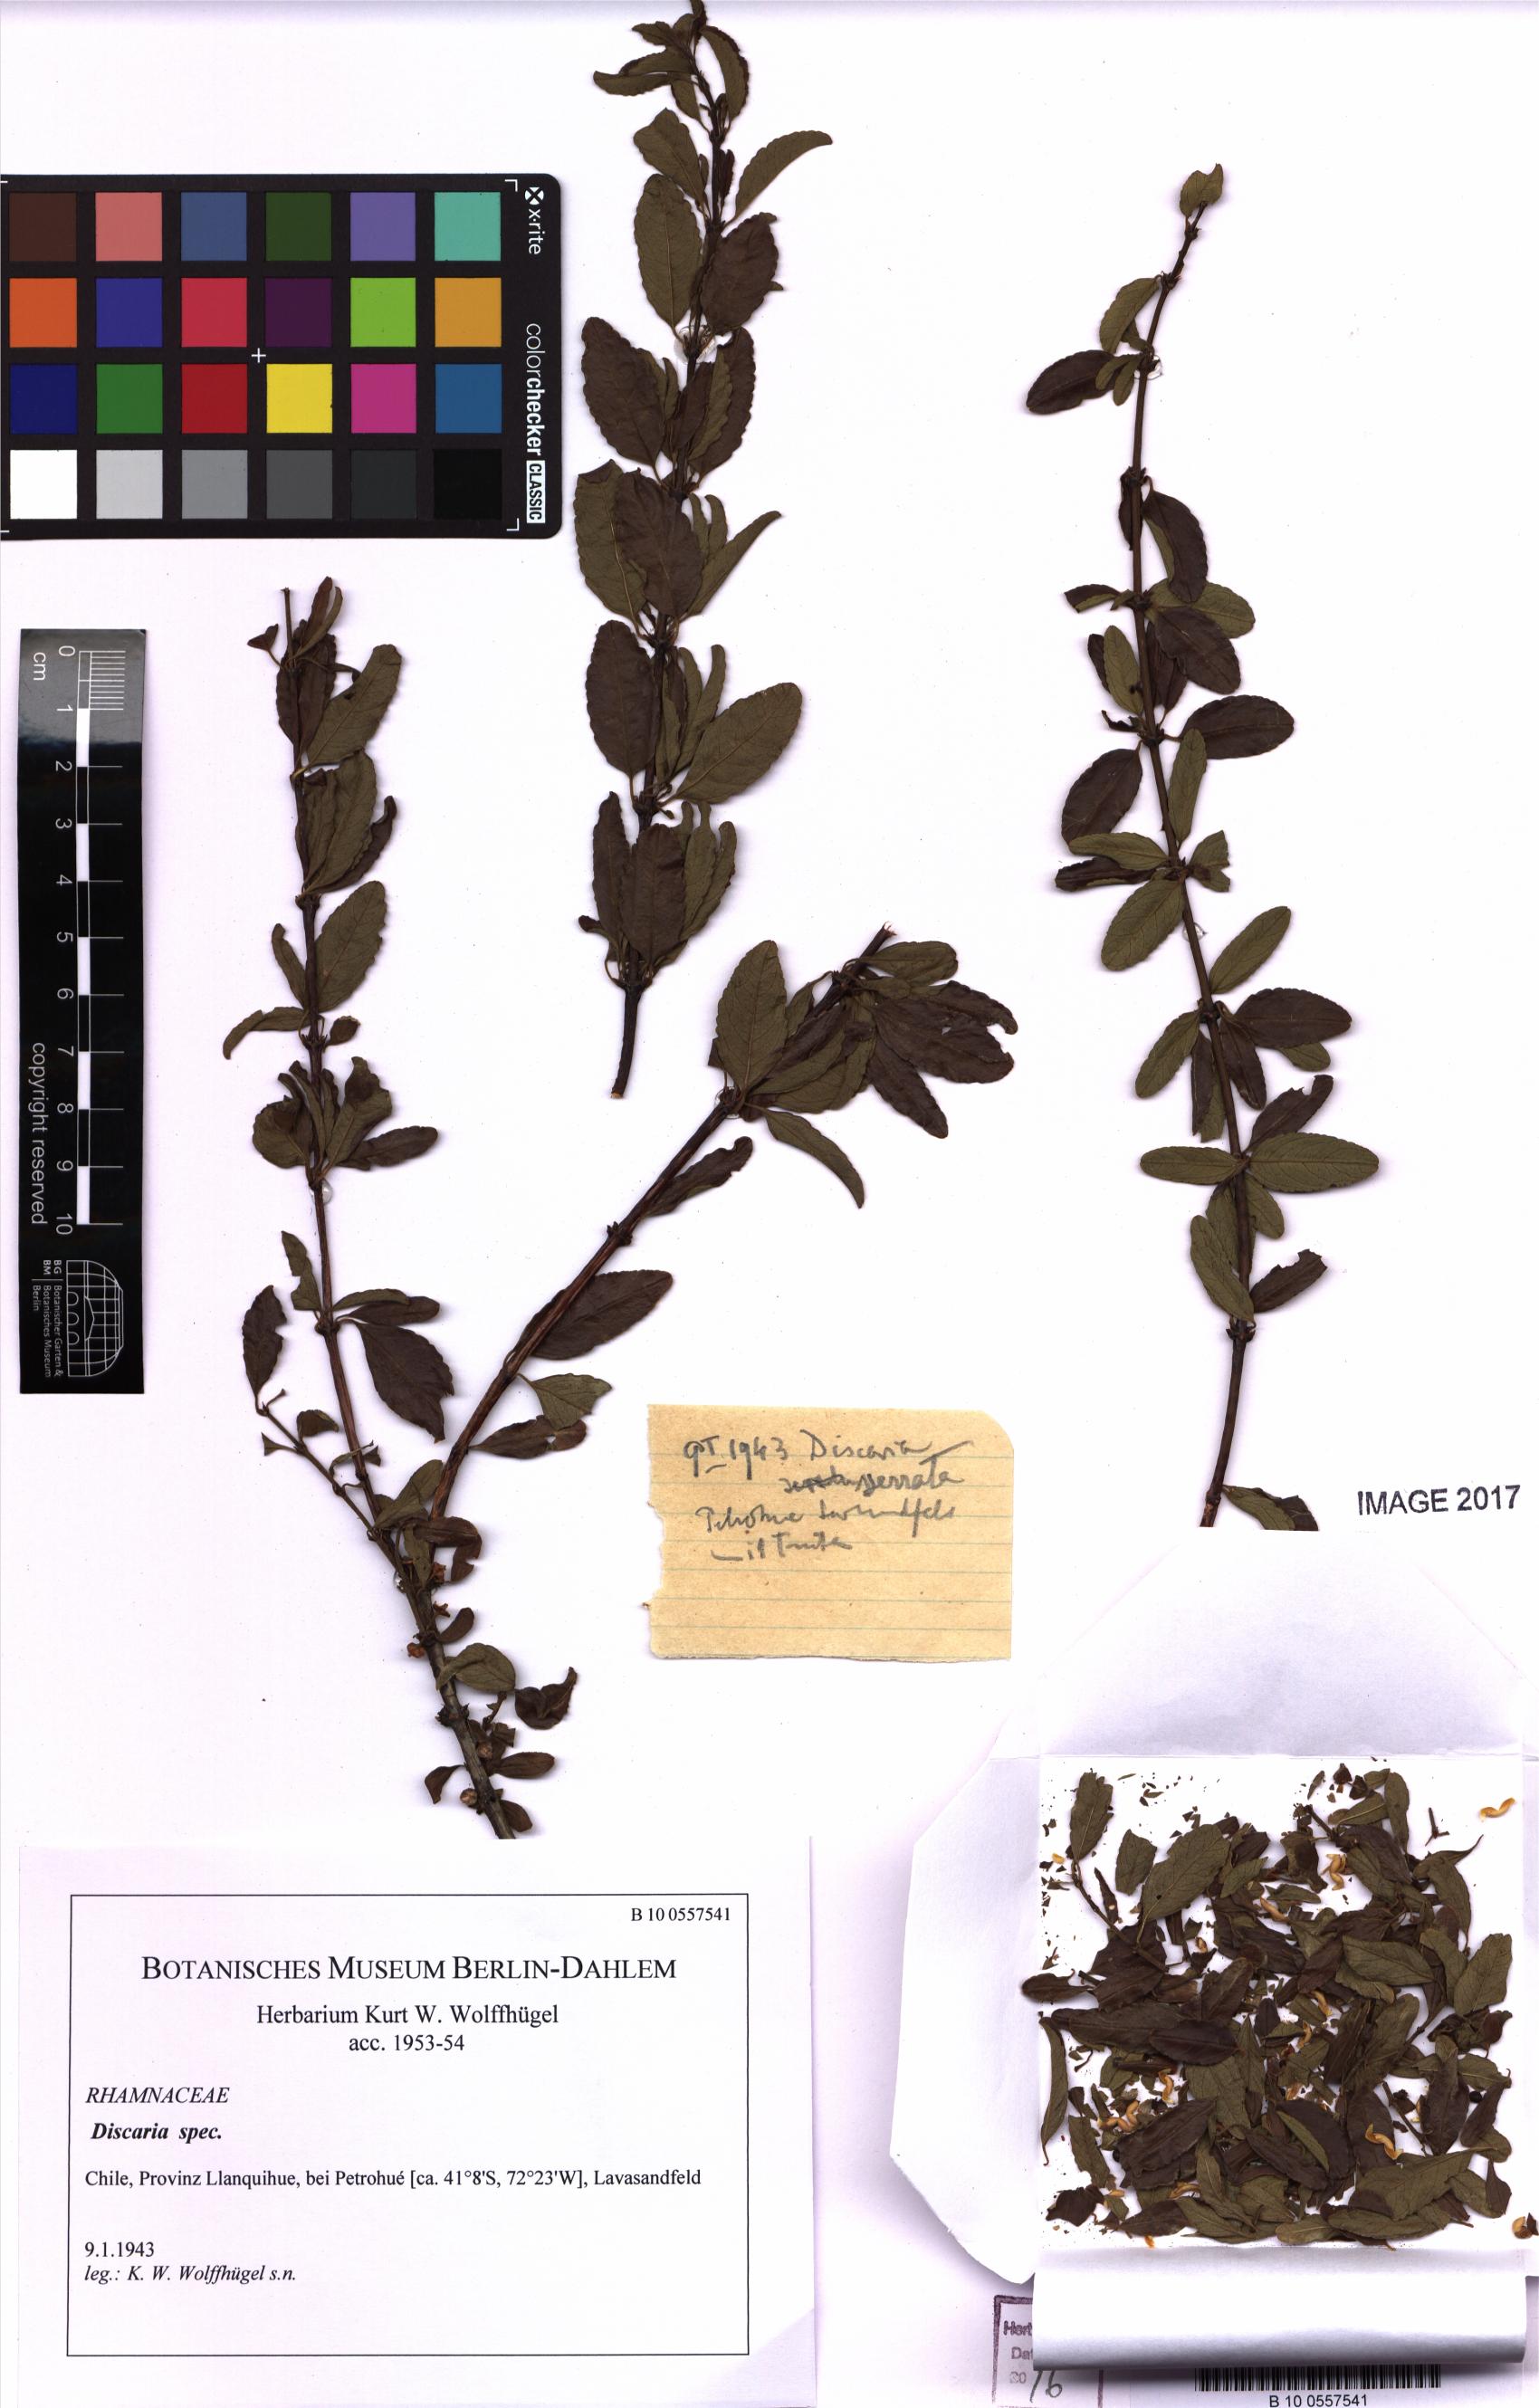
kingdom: Plantae
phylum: Tracheophyta
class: Magnoliopsida
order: Rosales
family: Rhamnaceae
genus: Discaria
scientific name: Discaria
